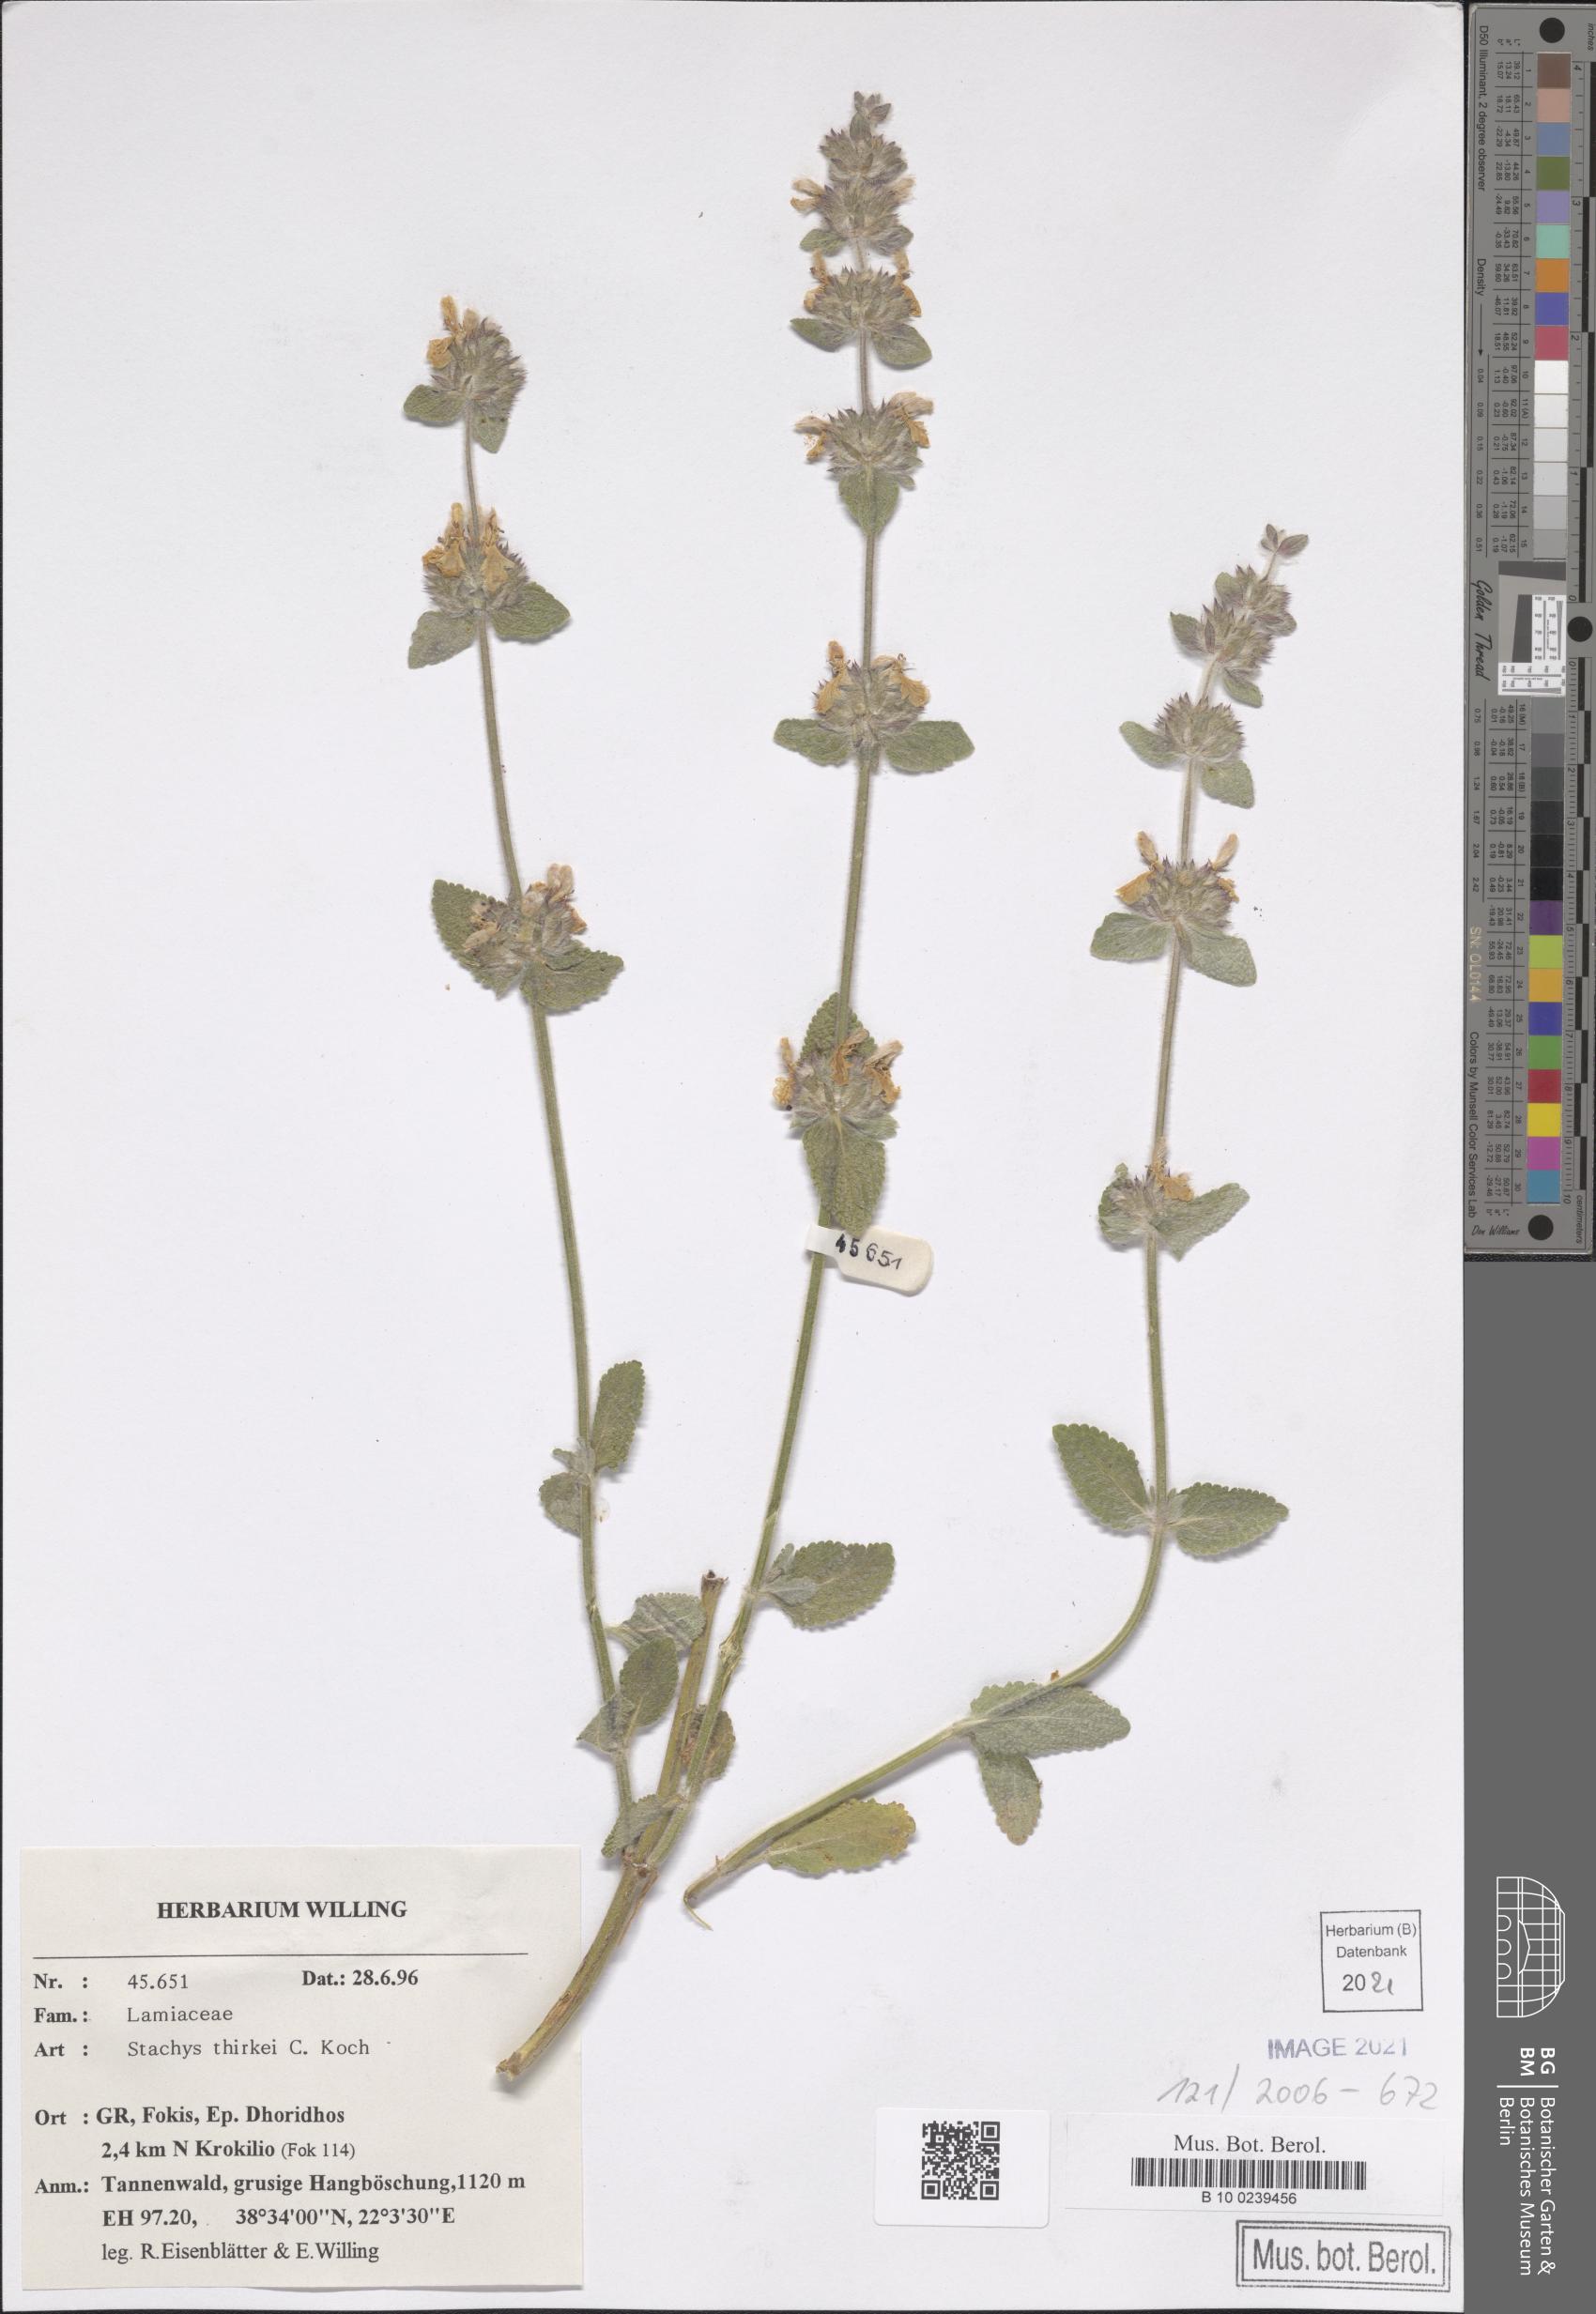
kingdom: Plantae
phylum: Tracheophyta
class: Magnoliopsida
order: Lamiales
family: Lamiaceae
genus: Stachys
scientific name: Stachys thirkei
